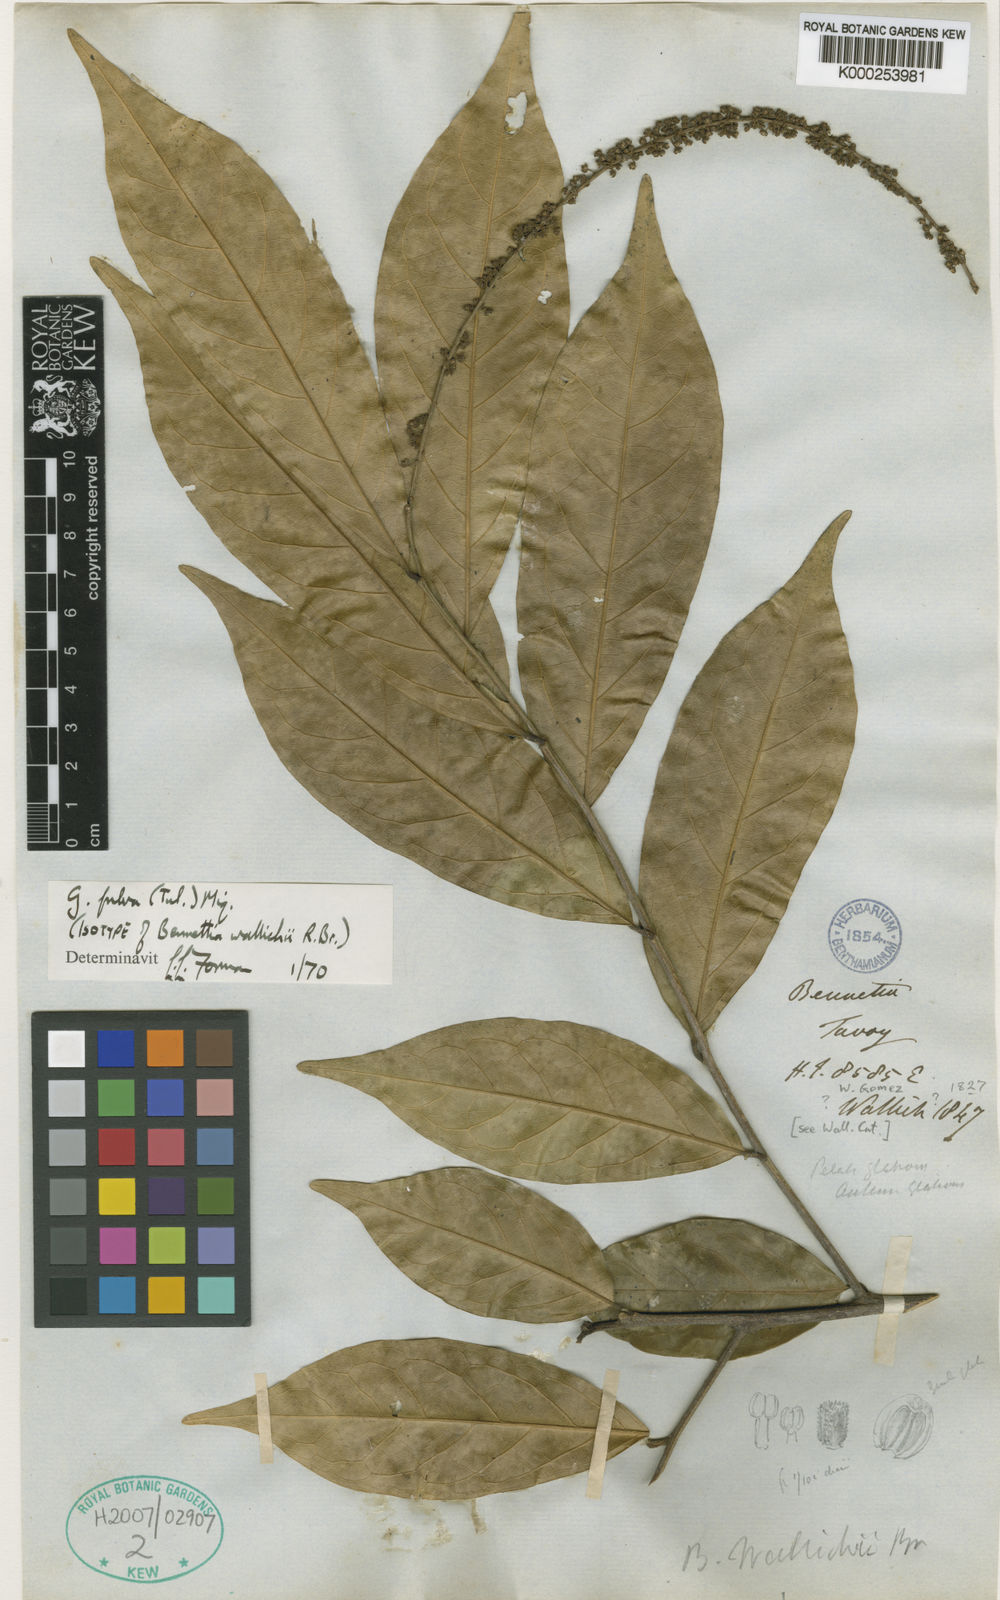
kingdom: Plantae
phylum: Tracheophyta
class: Magnoliopsida
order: Malpighiales
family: Pandaceae
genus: Galearia
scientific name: Galearia fulva
